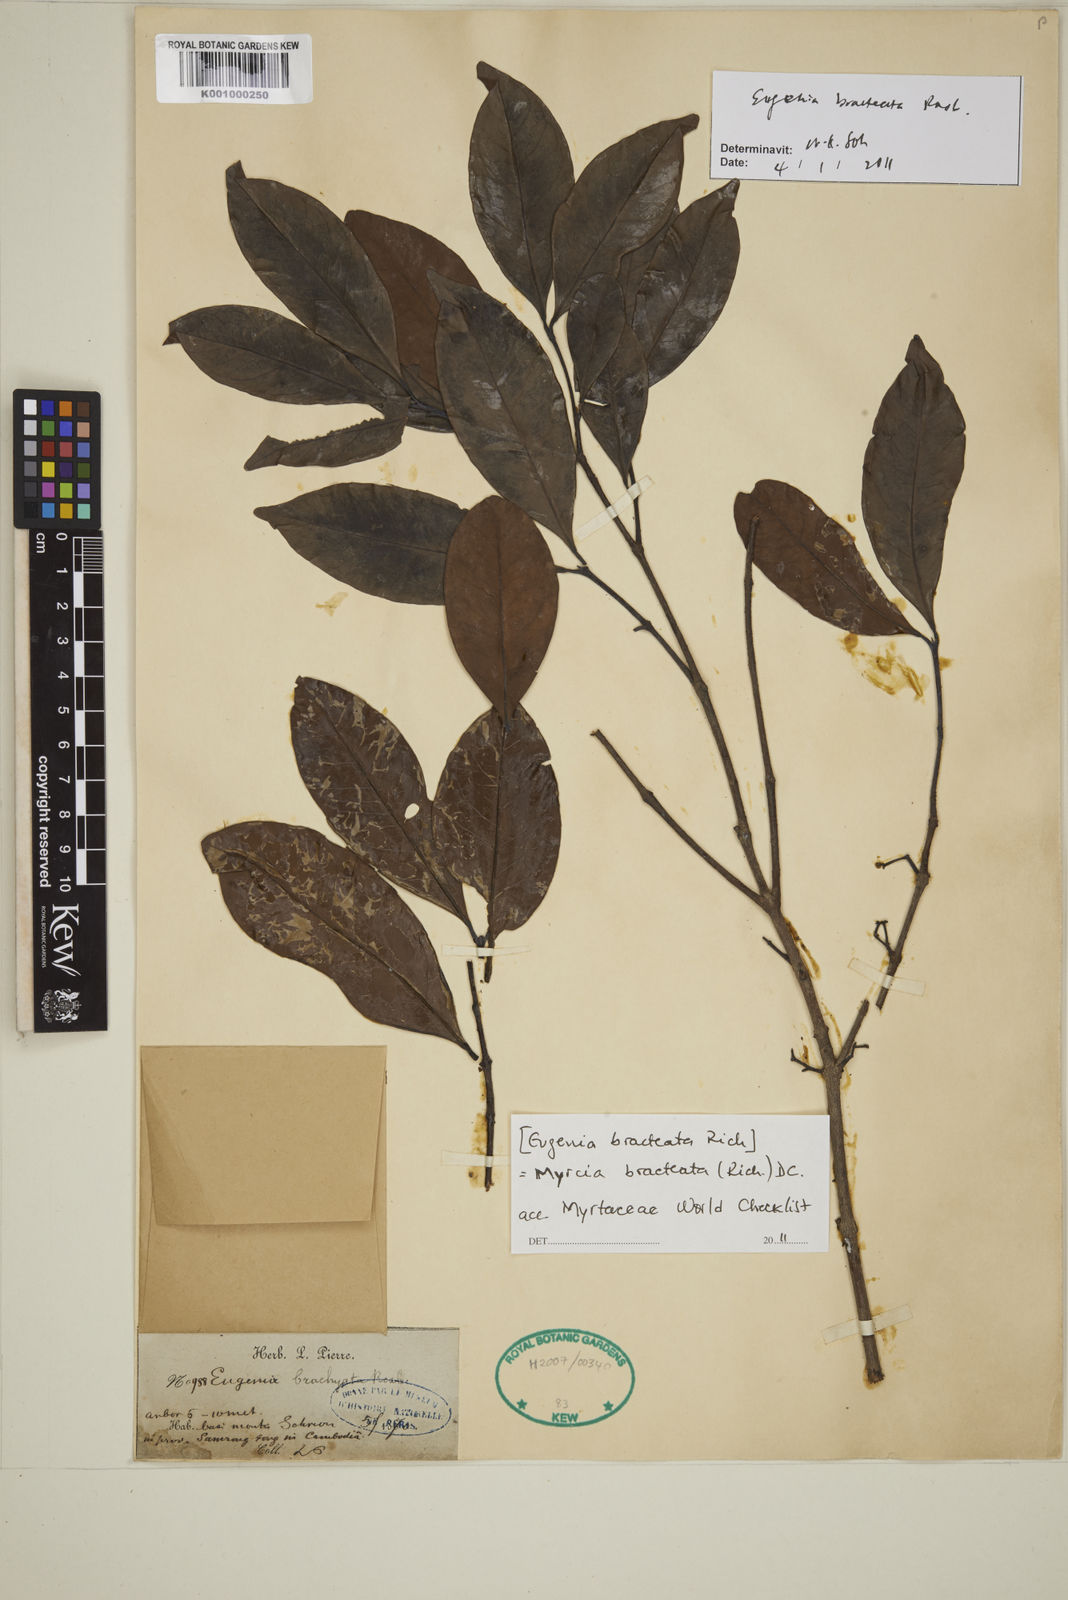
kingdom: Plantae
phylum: Tracheophyta
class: Magnoliopsida
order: Myrtales
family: Myrtaceae
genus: Myrcia
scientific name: Myrcia bracteata
